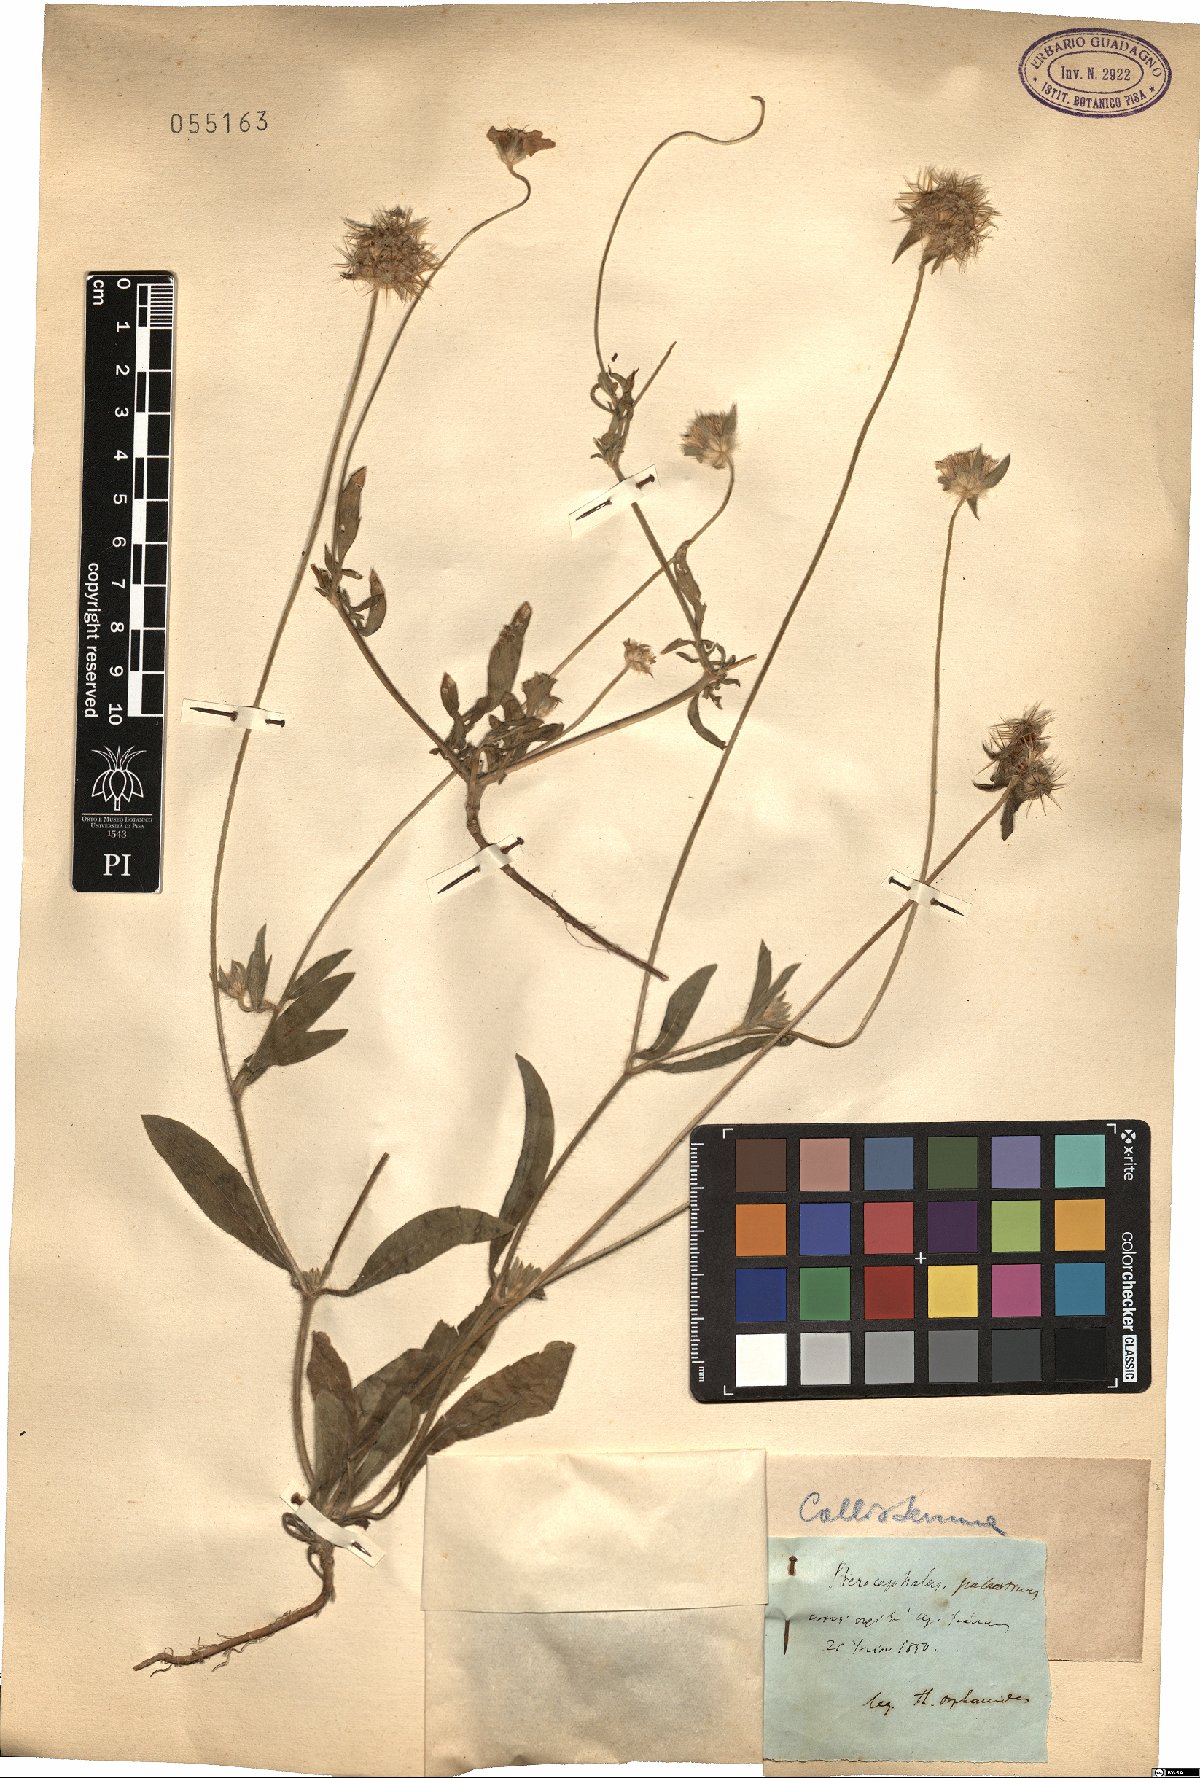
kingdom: Plantae
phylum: Tracheophyta
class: Magnoliopsida
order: Dipsacales
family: Caprifoliaceae
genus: Lomelosia
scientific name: Lomelosia palaestina
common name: Balkan pincushions
